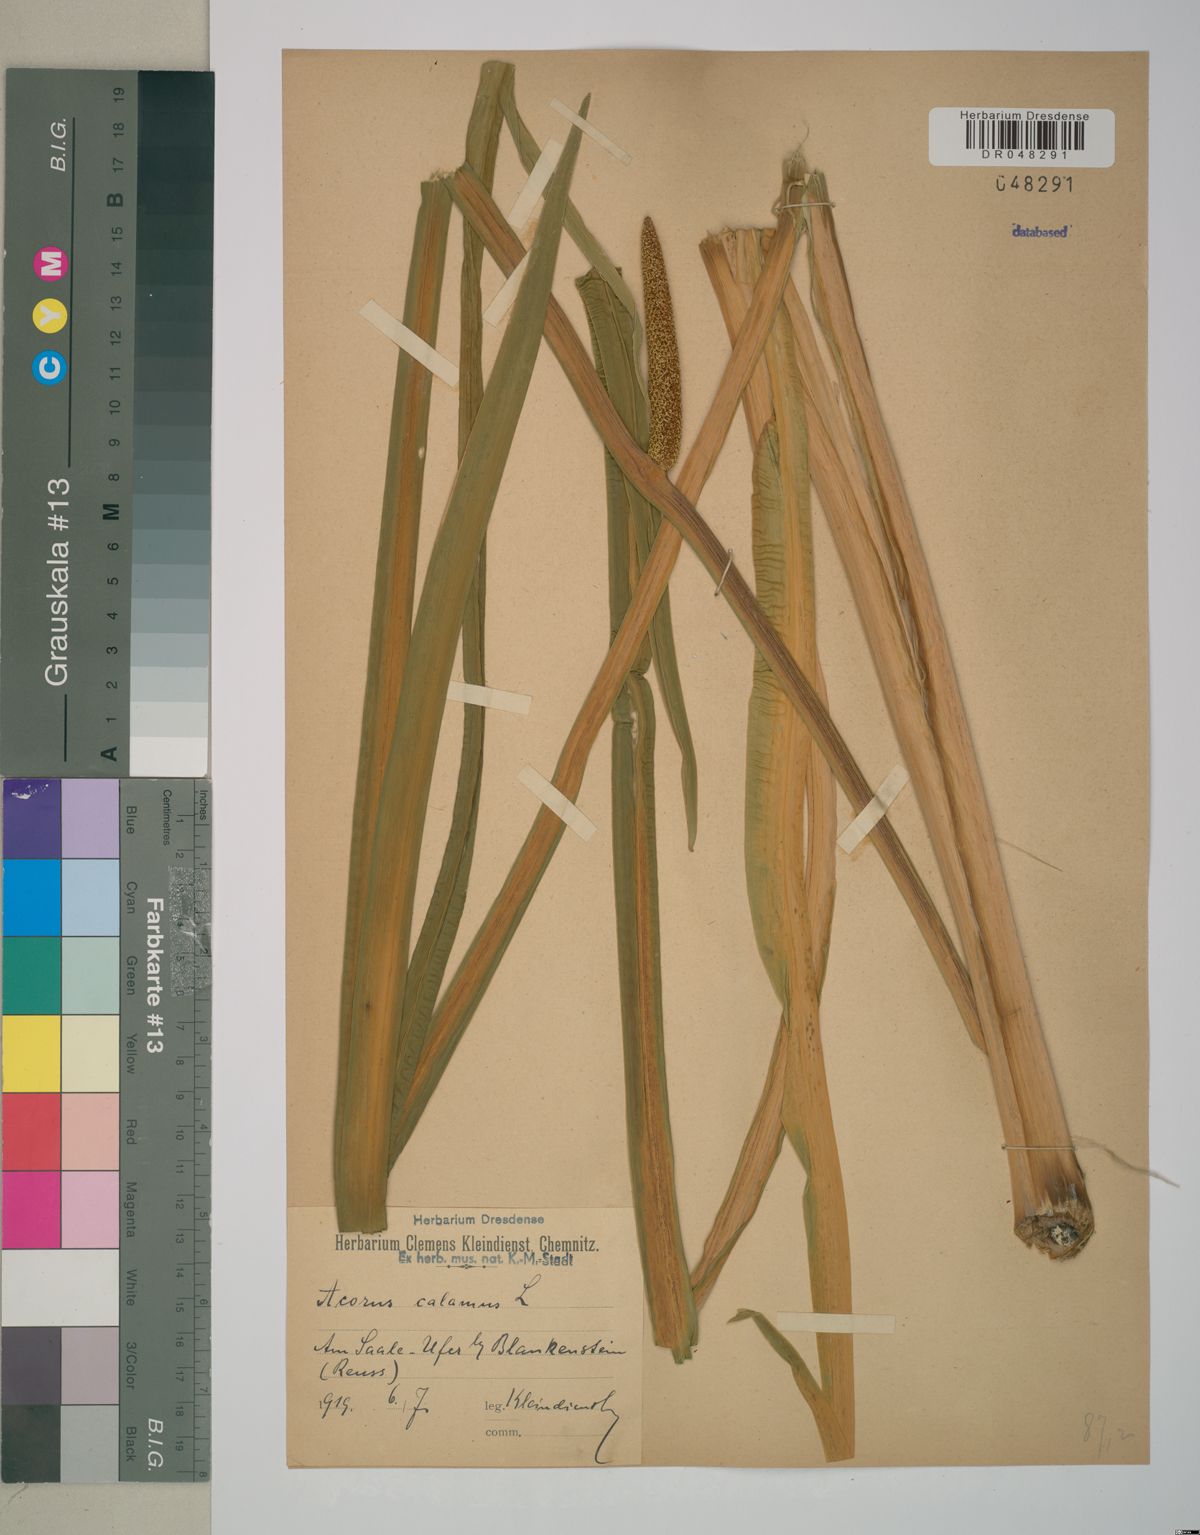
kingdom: Plantae
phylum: Tracheophyta
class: Liliopsida
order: Acorales
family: Acoraceae
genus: Acorus
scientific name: Acorus calamus
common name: Sweet-flag
